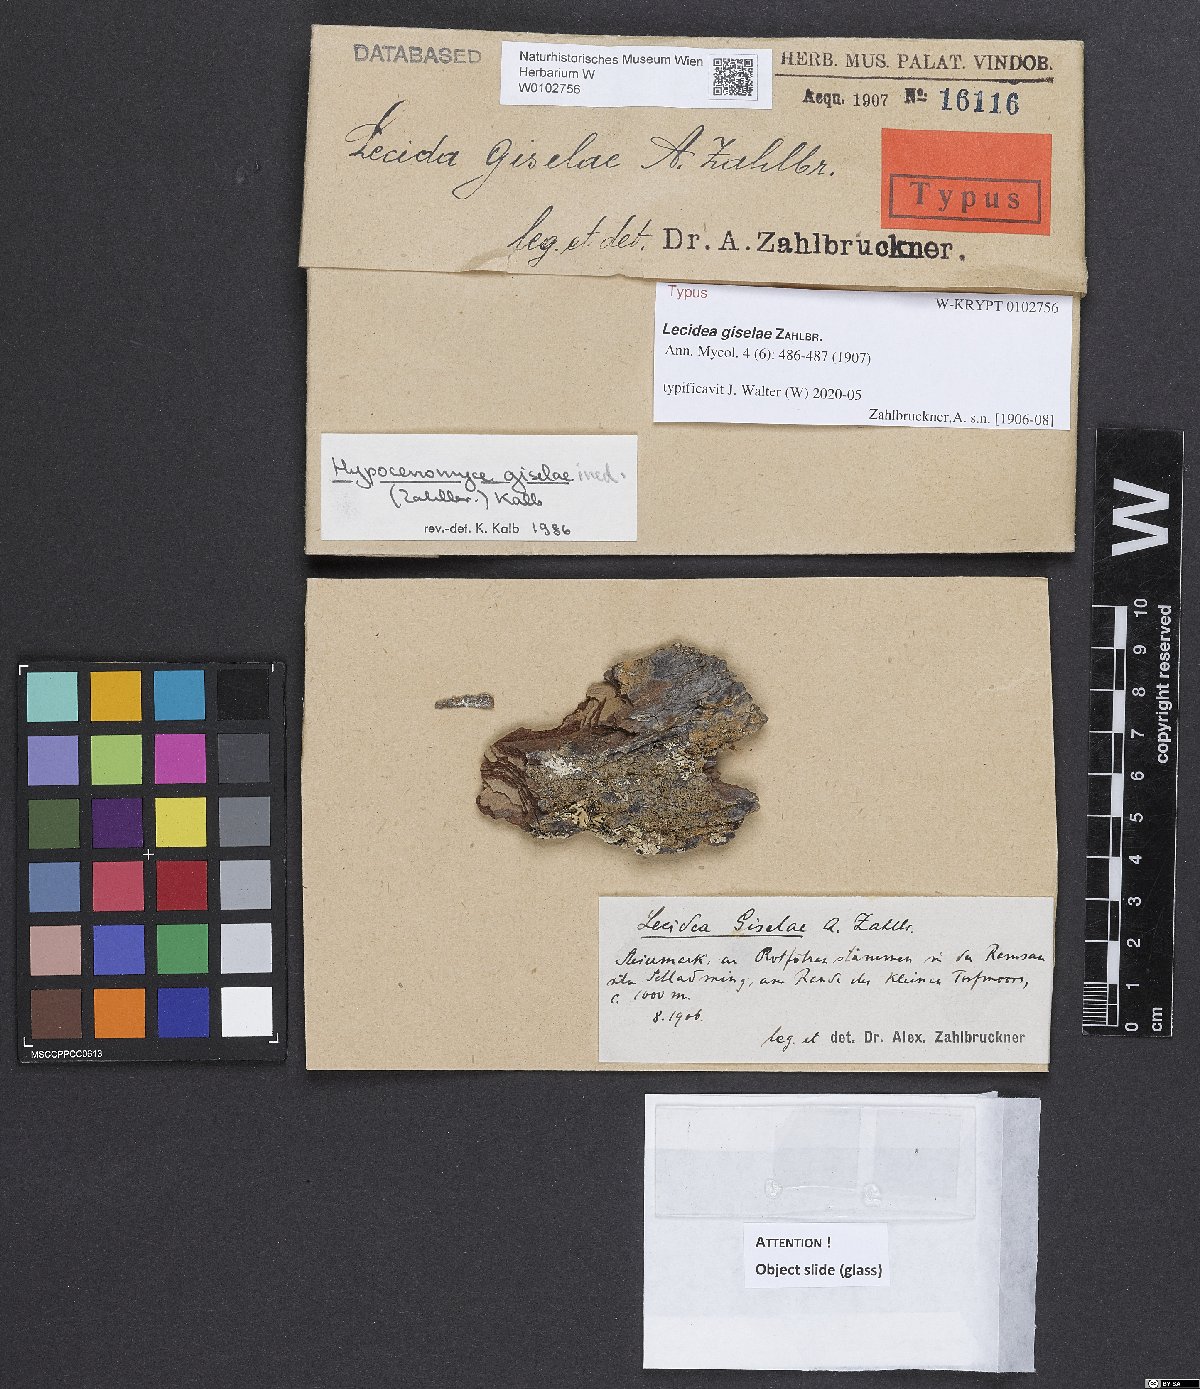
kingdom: Fungi
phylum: Ascomycota
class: Lecanoromycetes
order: Lecideales
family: Lecideaceae
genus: Lecidea
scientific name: Lecidea giselae
